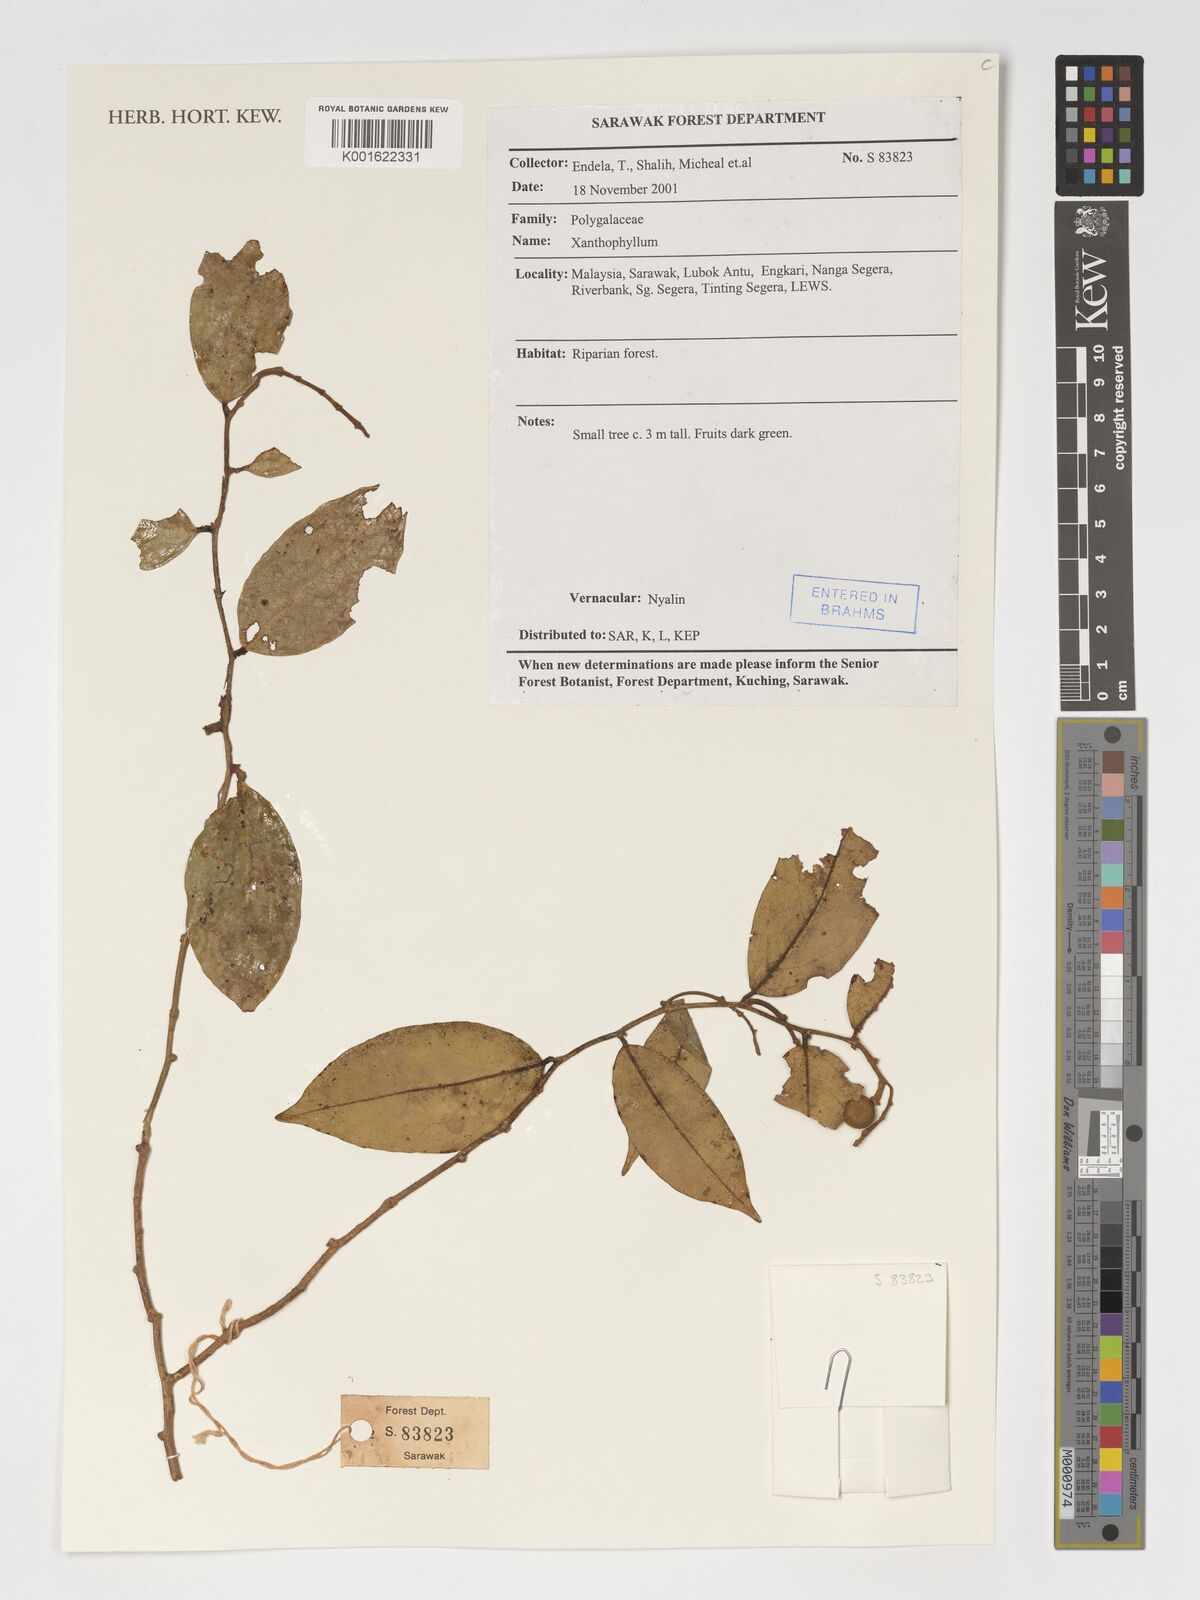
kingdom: Plantae
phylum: Tracheophyta
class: Magnoliopsida
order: Fabales
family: Polygalaceae
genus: Xanthophyllum
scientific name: Xanthophyllum
